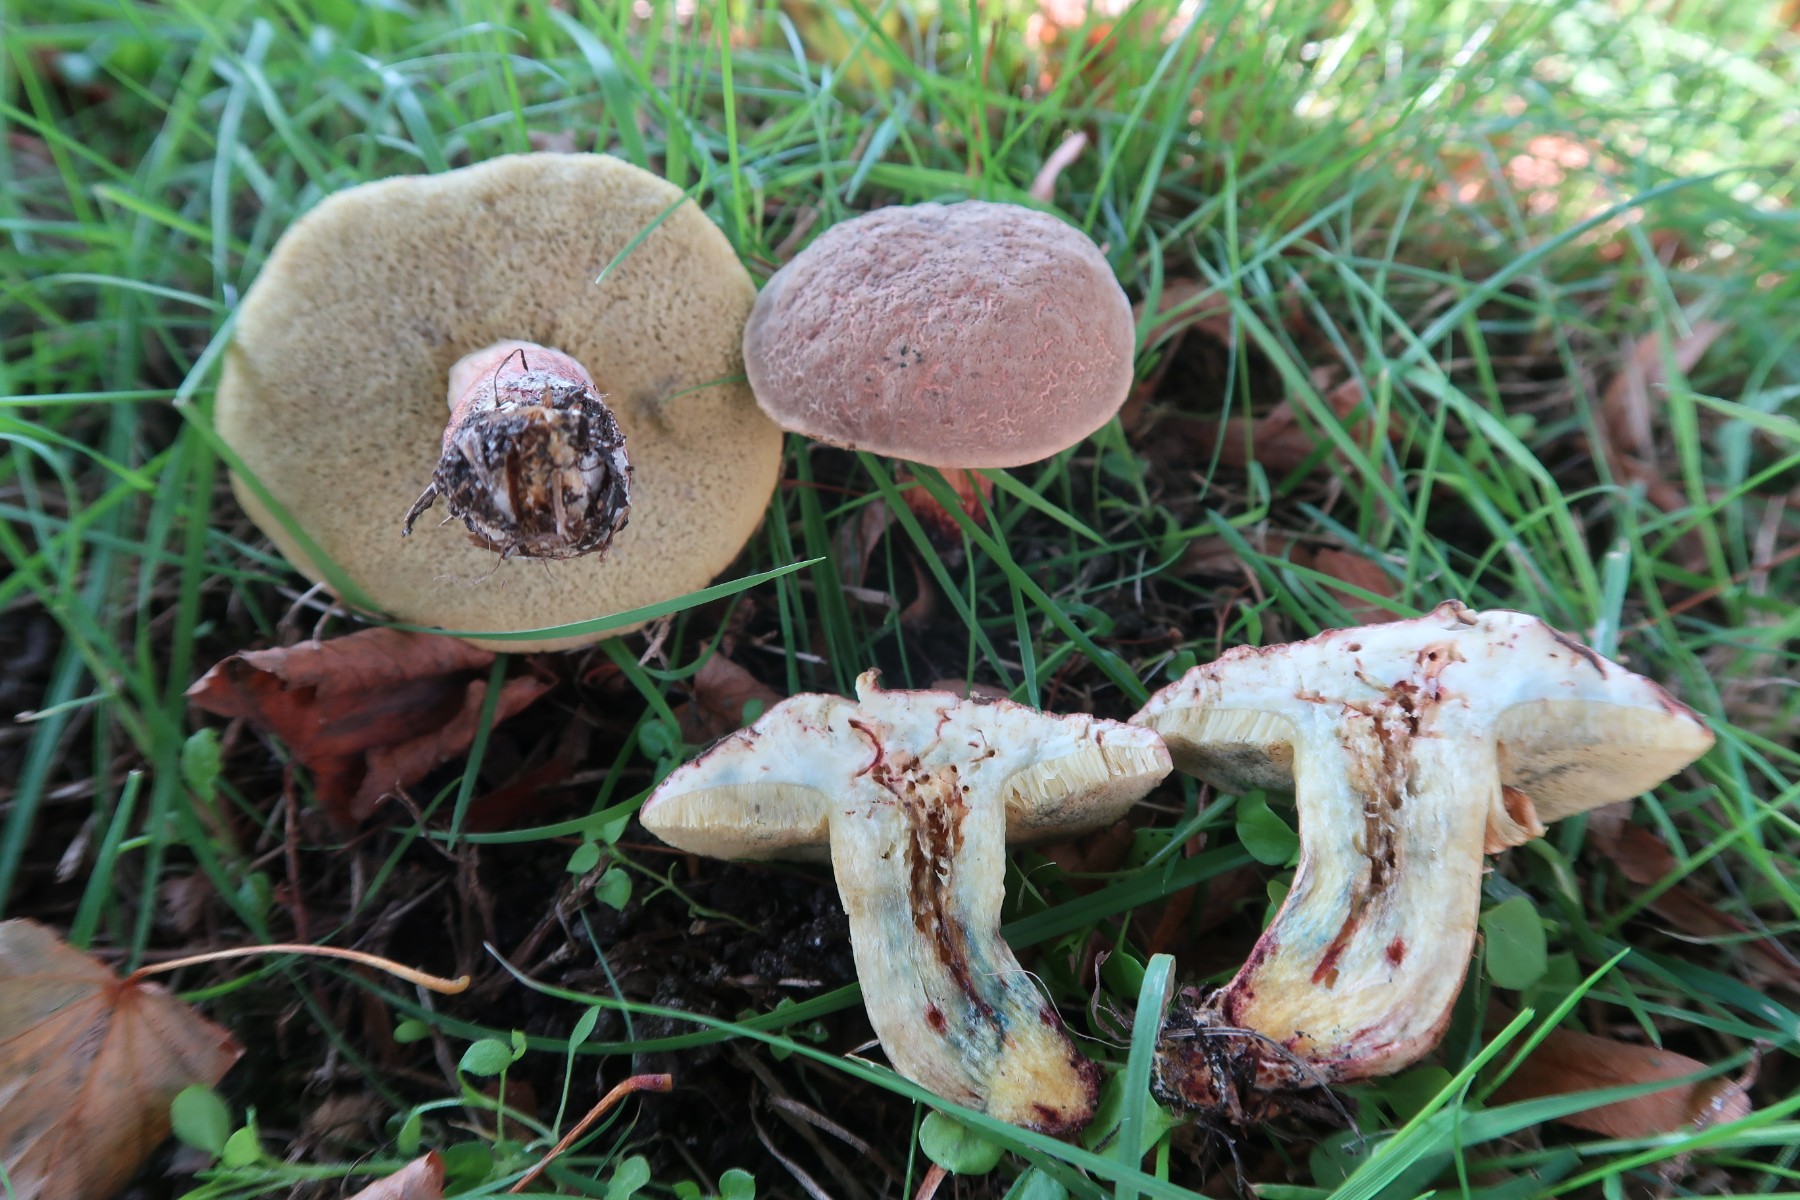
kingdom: Fungi
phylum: Basidiomycota
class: Agaricomycetes
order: Boletales
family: Boletaceae
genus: Xerocomellus
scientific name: Xerocomellus cisalpinus
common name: finsprukken rørhat
